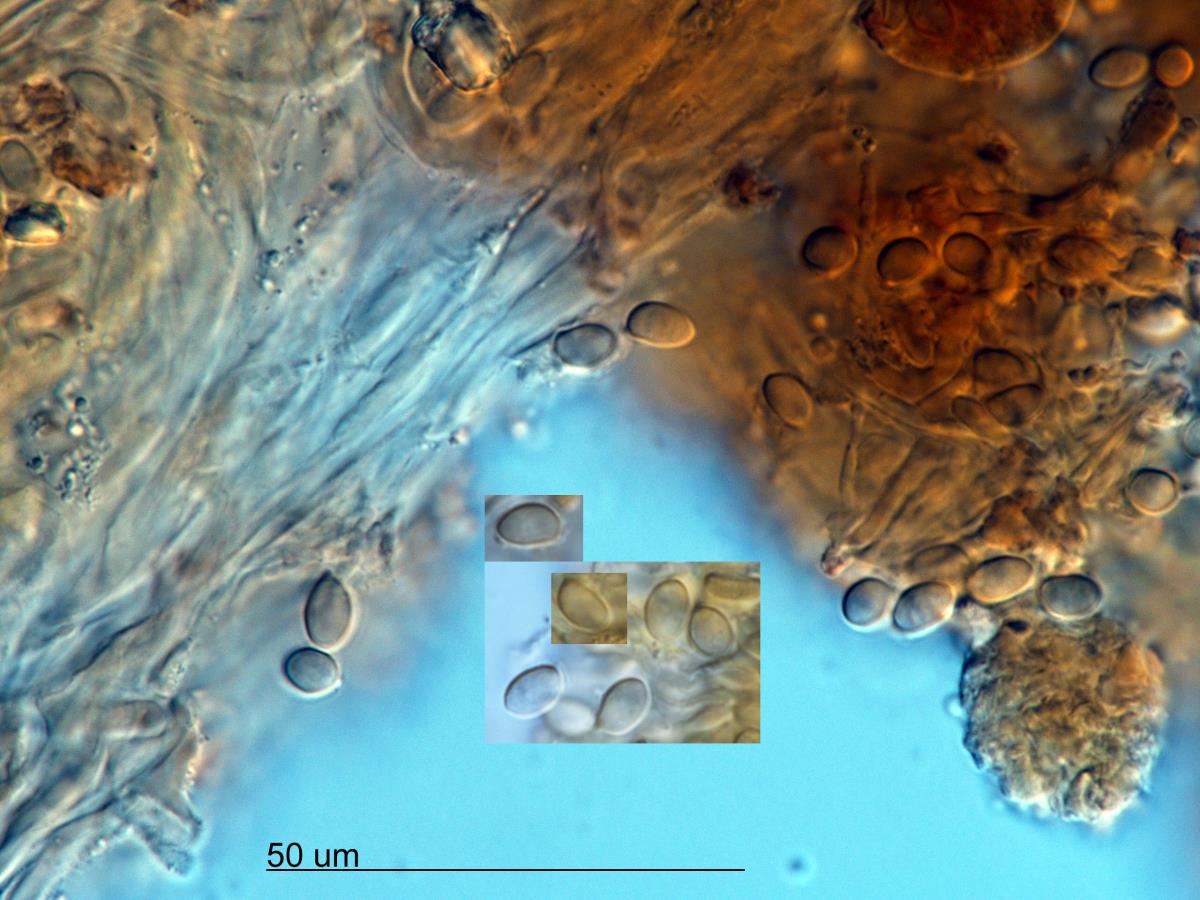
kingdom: Fungi
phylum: Basidiomycota
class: Agaricomycetes
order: Agaricales
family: Strophariaceae
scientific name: Strophariaceae
